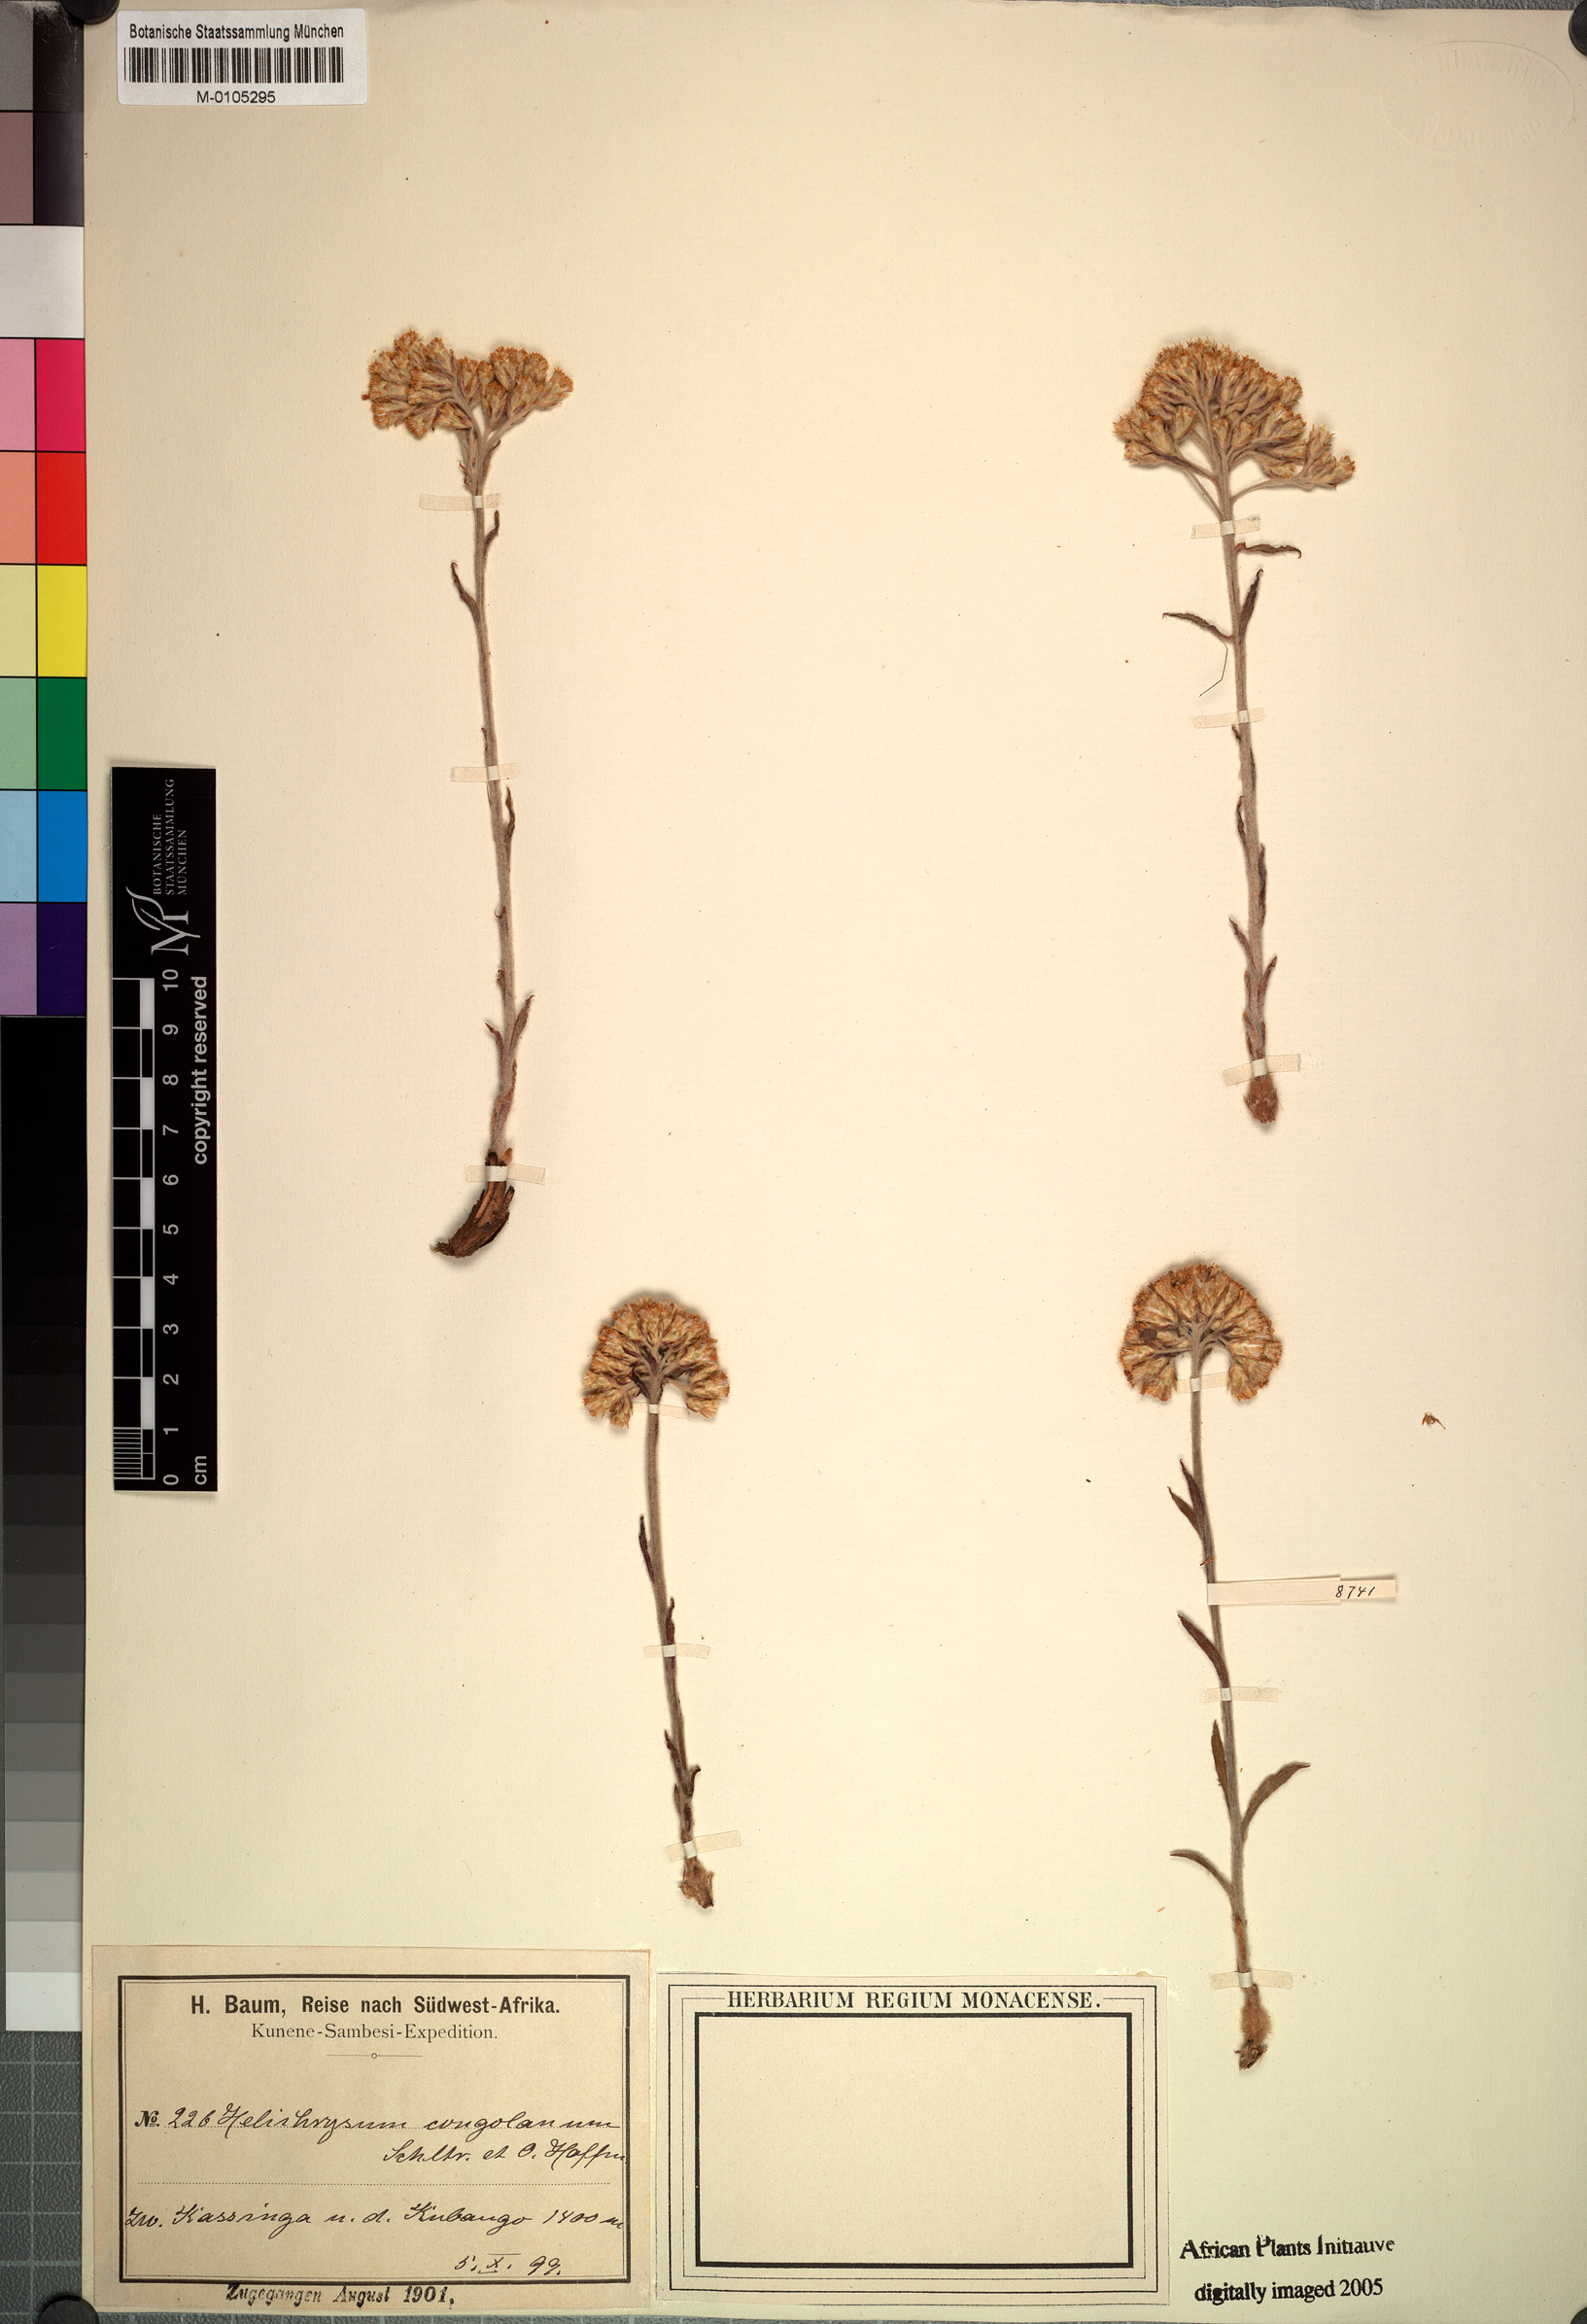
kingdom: Plantae
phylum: Tracheophyta
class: Magnoliopsida
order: Asterales
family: Asteraceae
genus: Helichrysum
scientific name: Helichrysum congolanum
